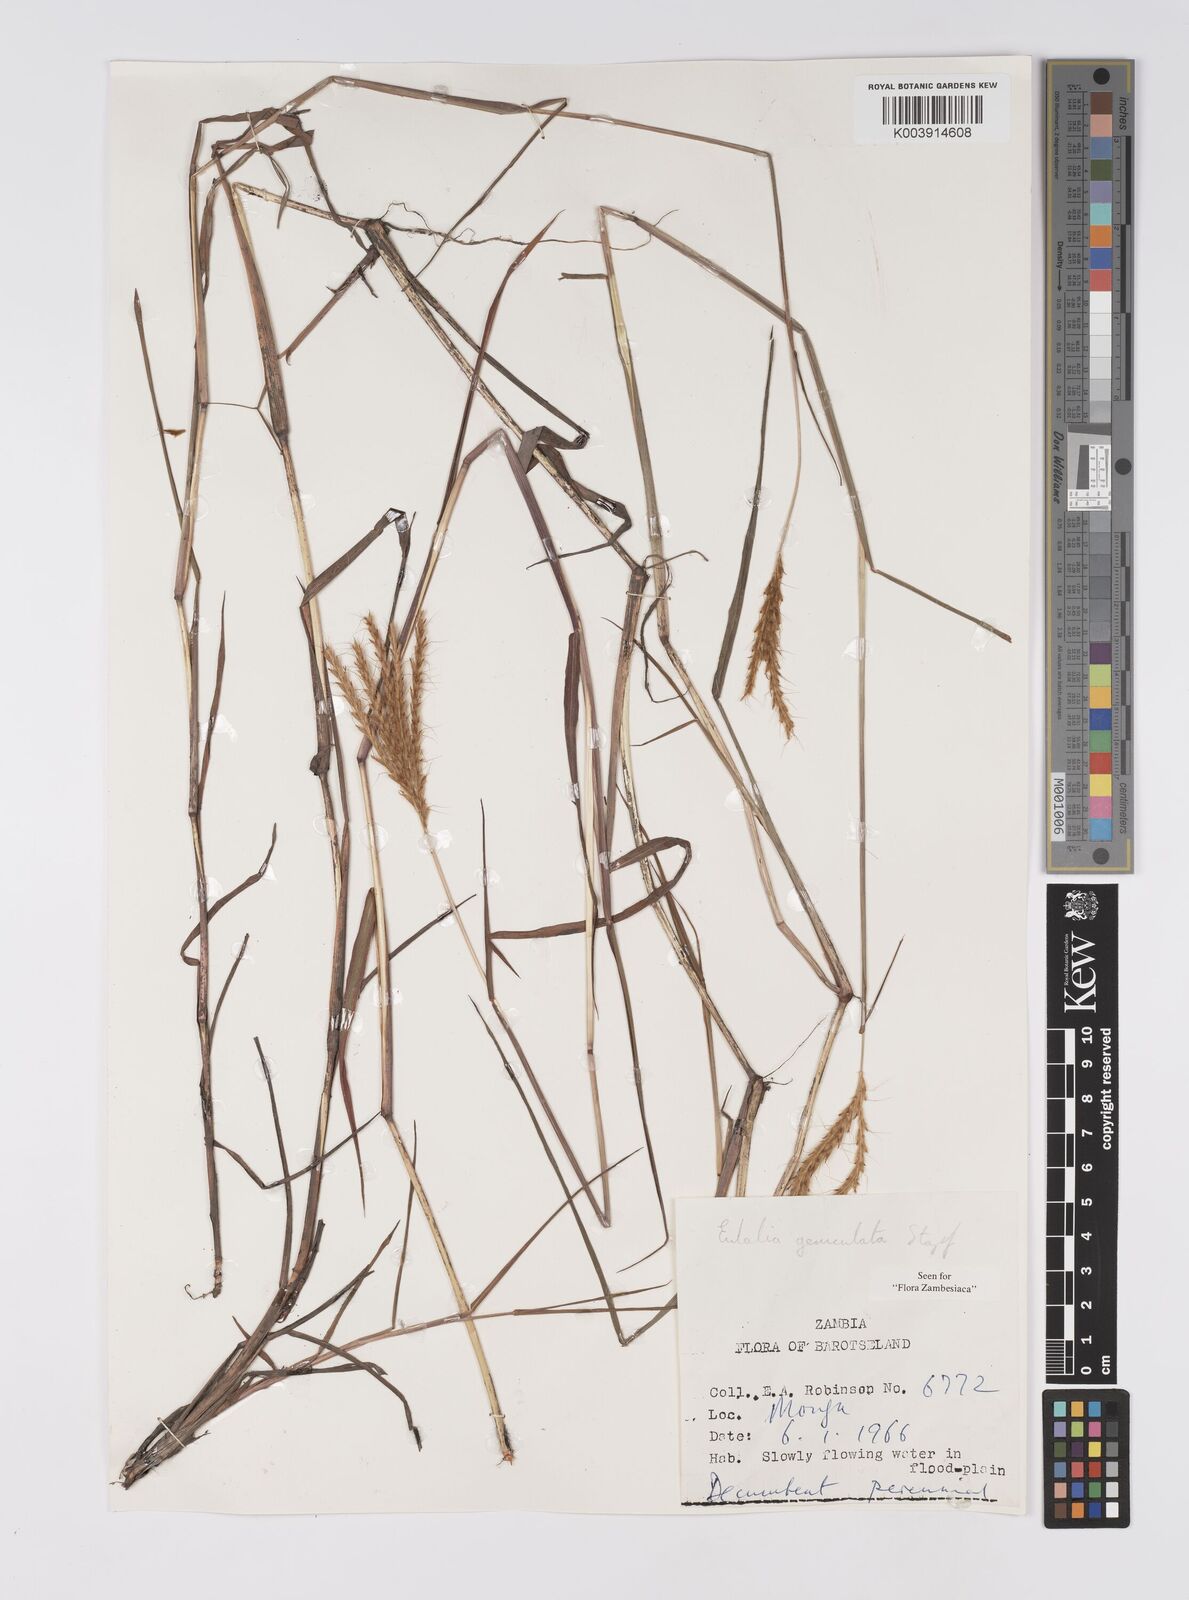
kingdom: Plantae
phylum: Tracheophyta
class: Liliopsida
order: Poales
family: Poaceae
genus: Eulalia
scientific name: Eulalia aurea
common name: Silky browntop
